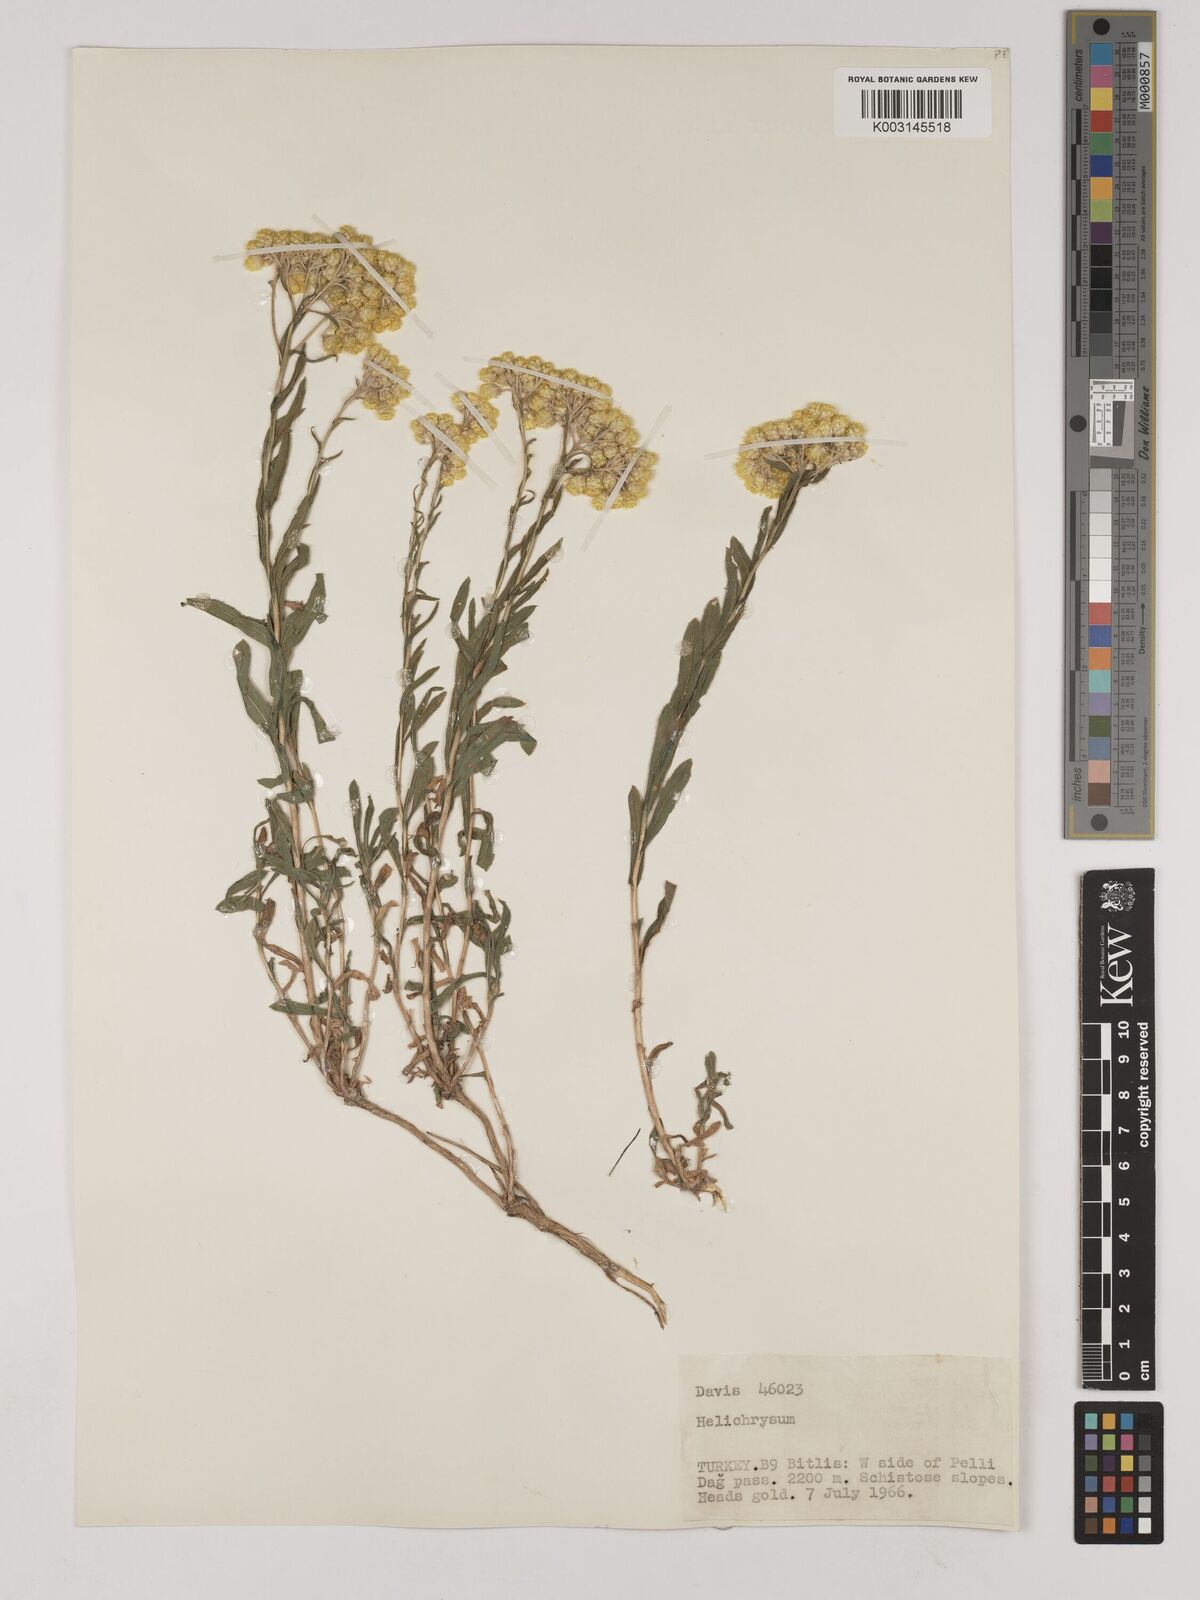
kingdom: Plantae
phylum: Tracheophyta
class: Magnoliopsida
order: Asterales
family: Asteraceae
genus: Helichrysum
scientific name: Helichrysum araxinum
